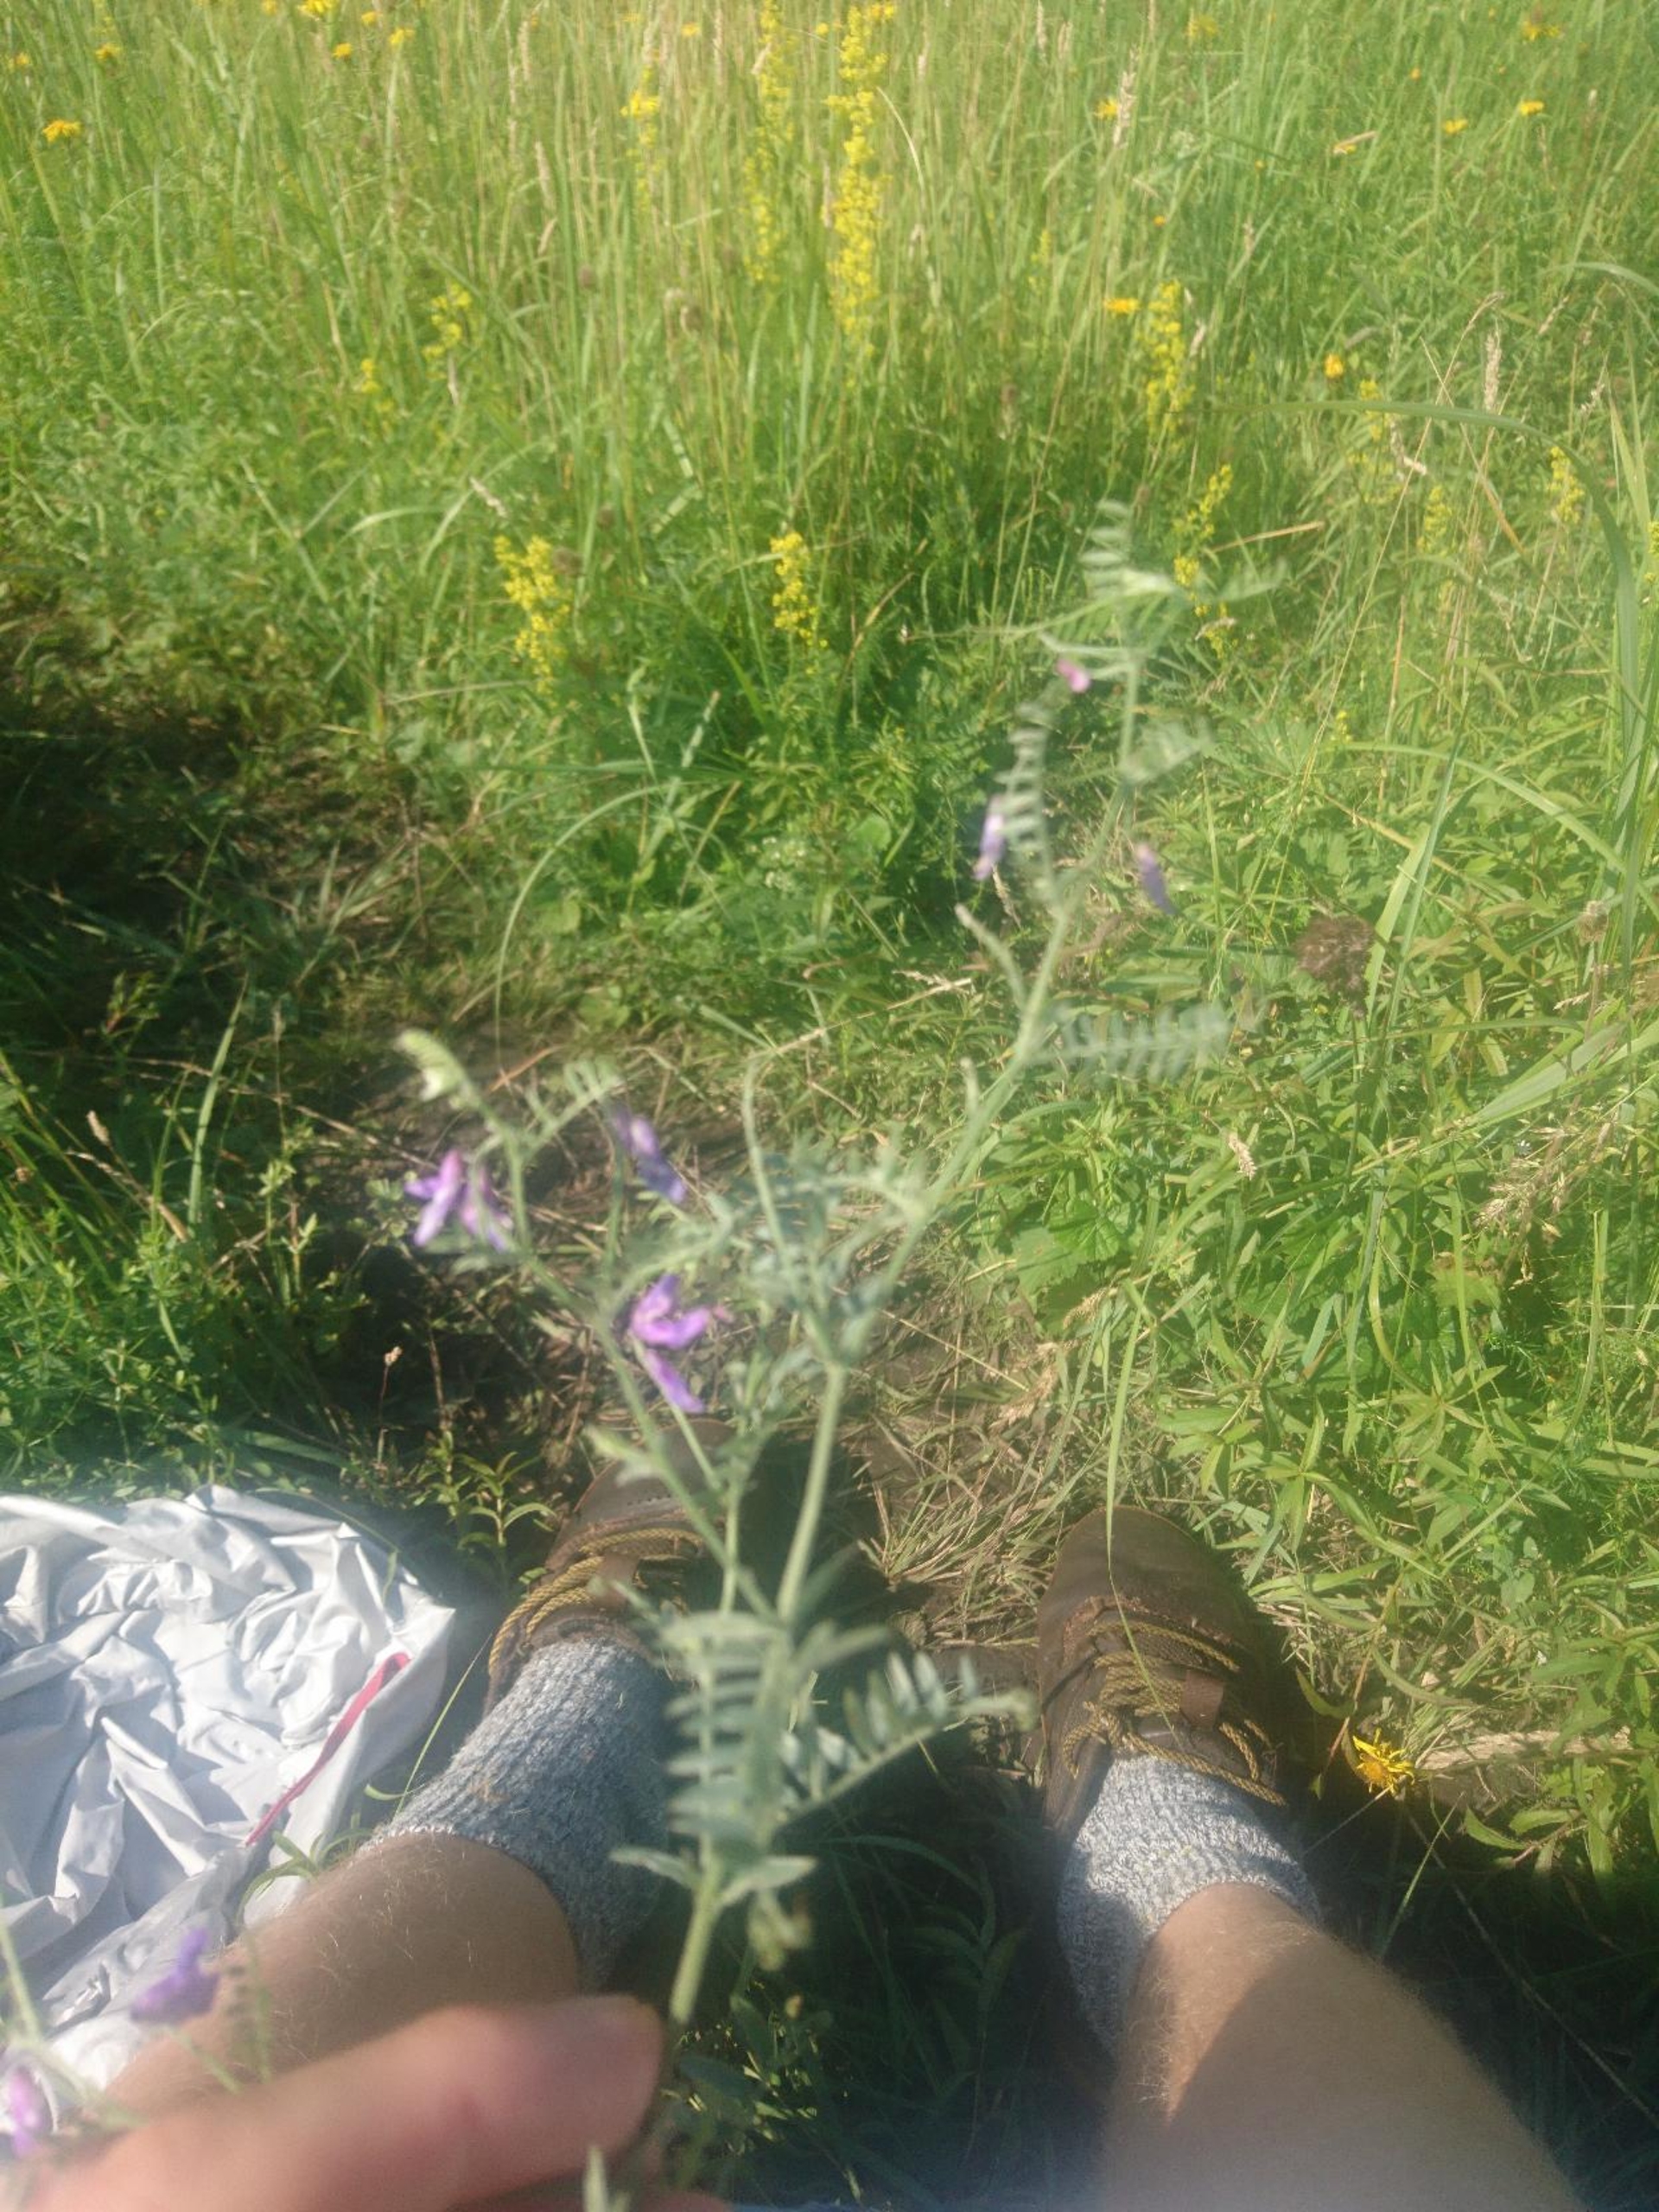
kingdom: Plantae
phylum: Tracheophyta
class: Magnoliopsida
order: Fabales
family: Fabaceae
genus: Vicia
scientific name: Vicia cracca
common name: Muse-vikke
